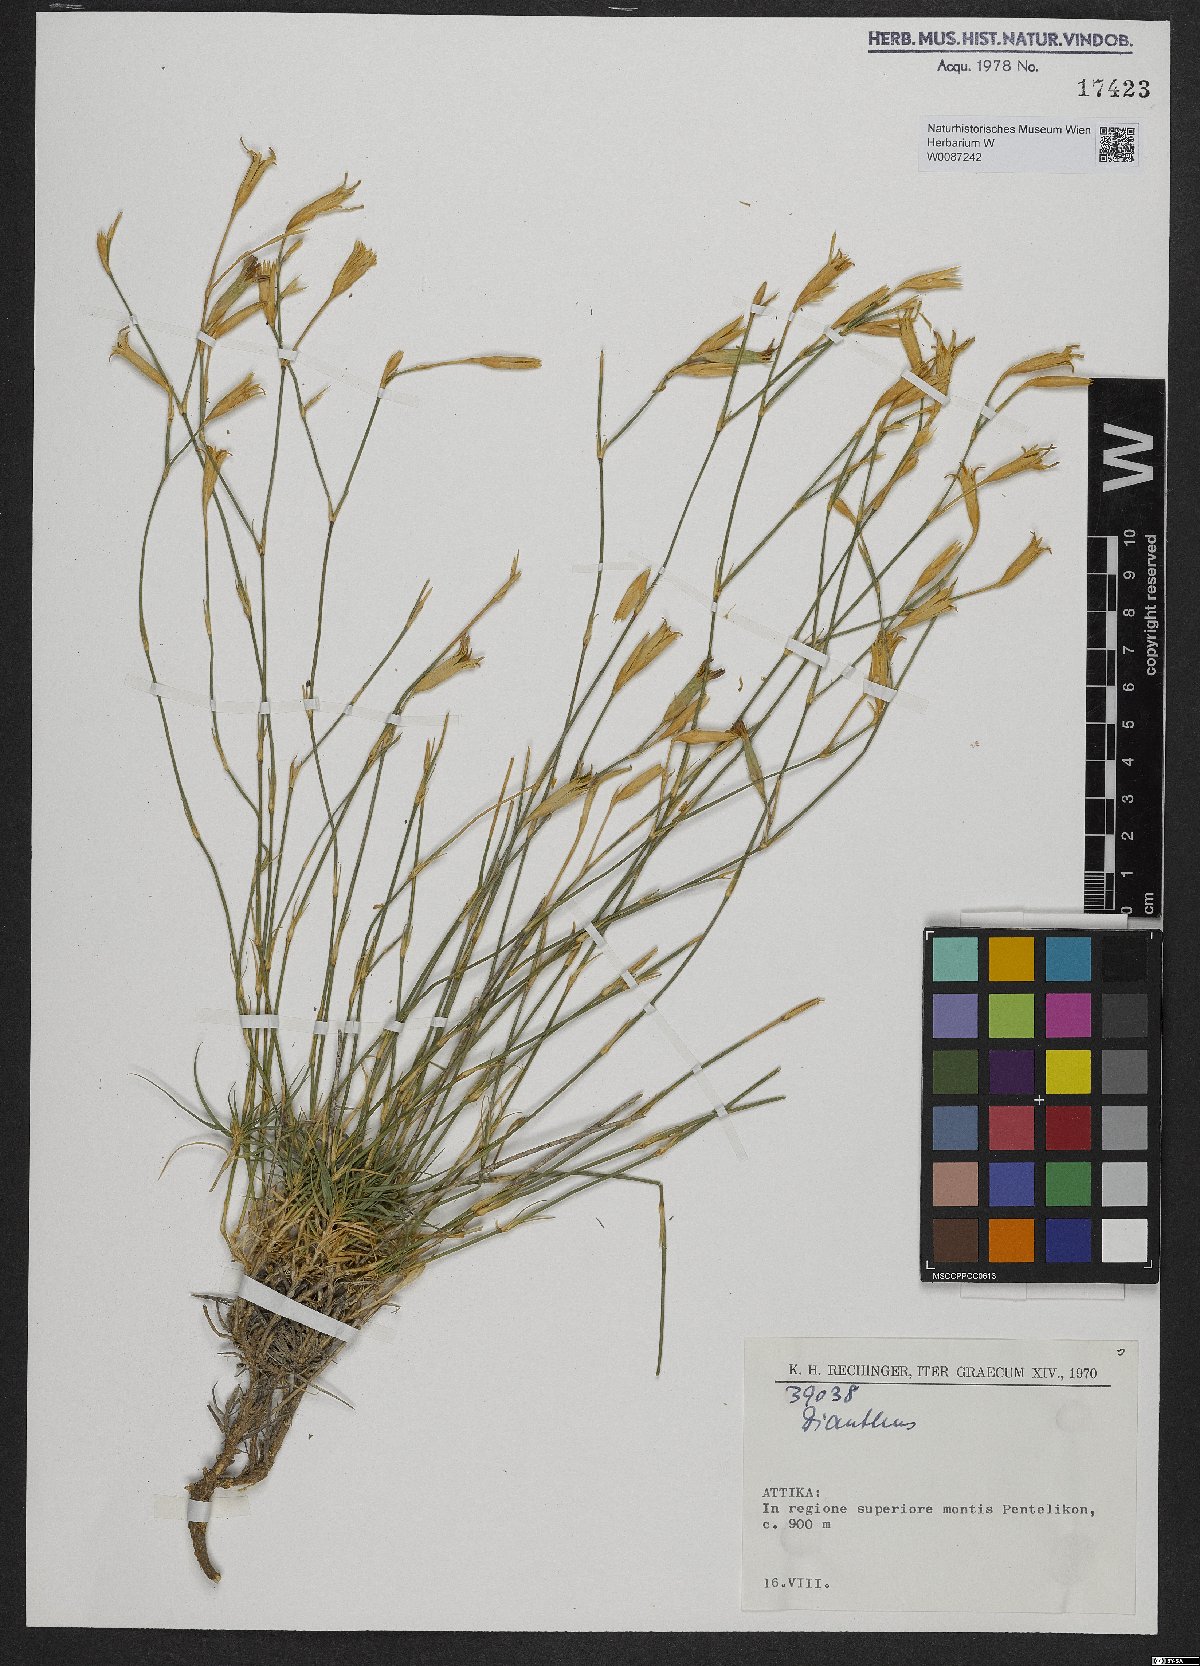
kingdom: Plantae
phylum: Tracheophyta
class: Magnoliopsida
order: Caryophyllales
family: Caryophyllaceae
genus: Dianthus
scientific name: Dianthus
